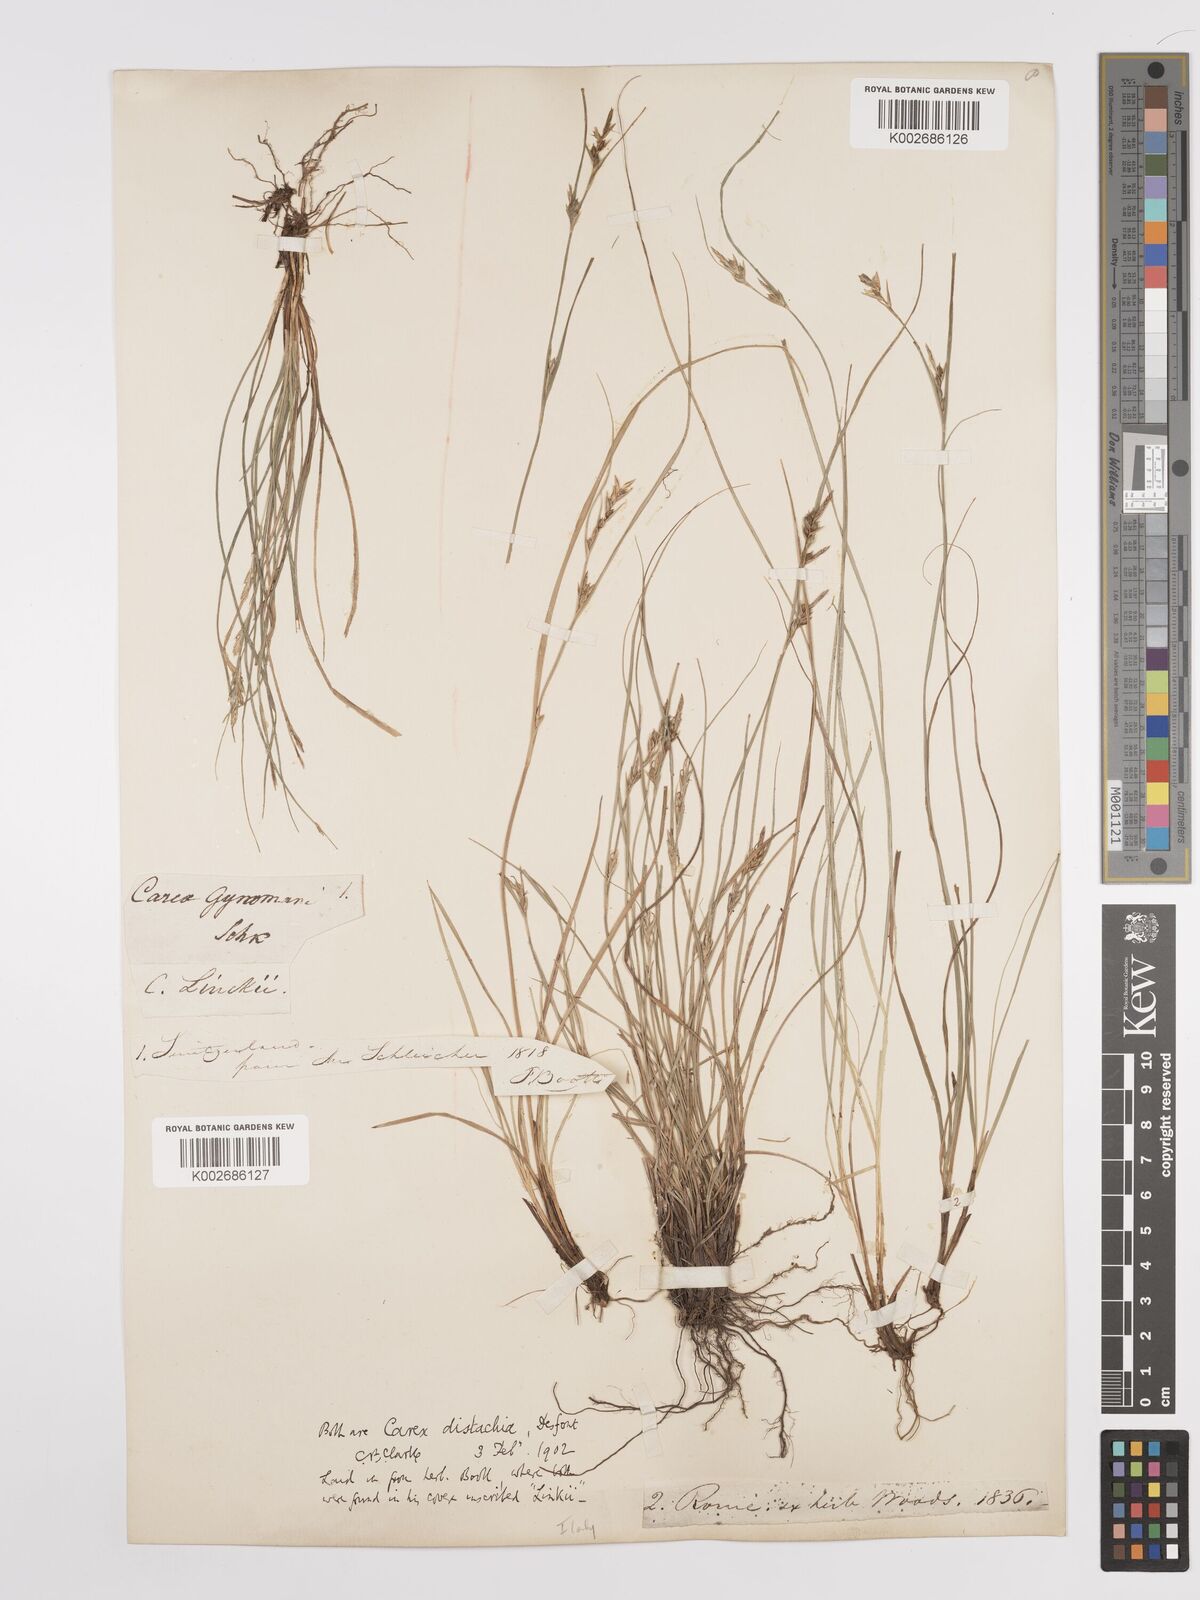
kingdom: Plantae
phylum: Tracheophyta
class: Liliopsida
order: Poales
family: Cyperaceae
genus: Carex
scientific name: Carex distachya
